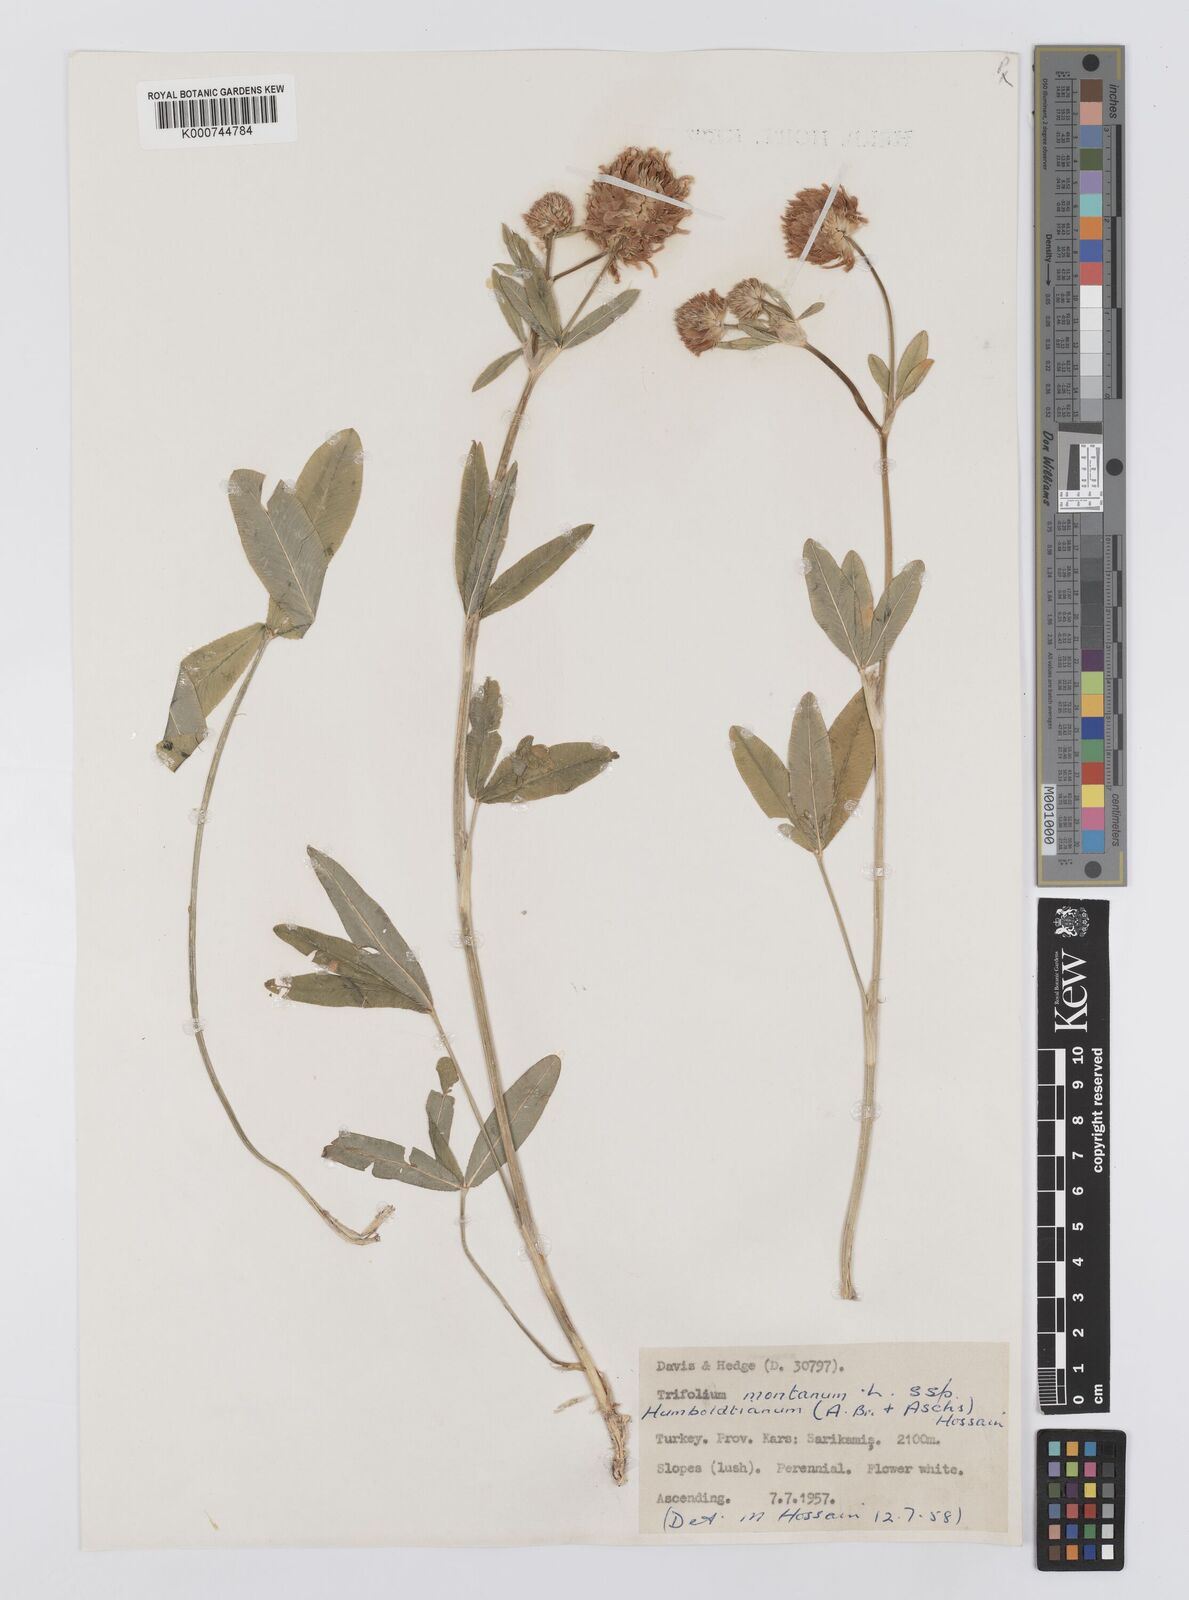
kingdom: Plantae
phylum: Tracheophyta
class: Magnoliopsida
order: Fabales
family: Fabaceae
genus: Trifolium
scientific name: Trifolium
